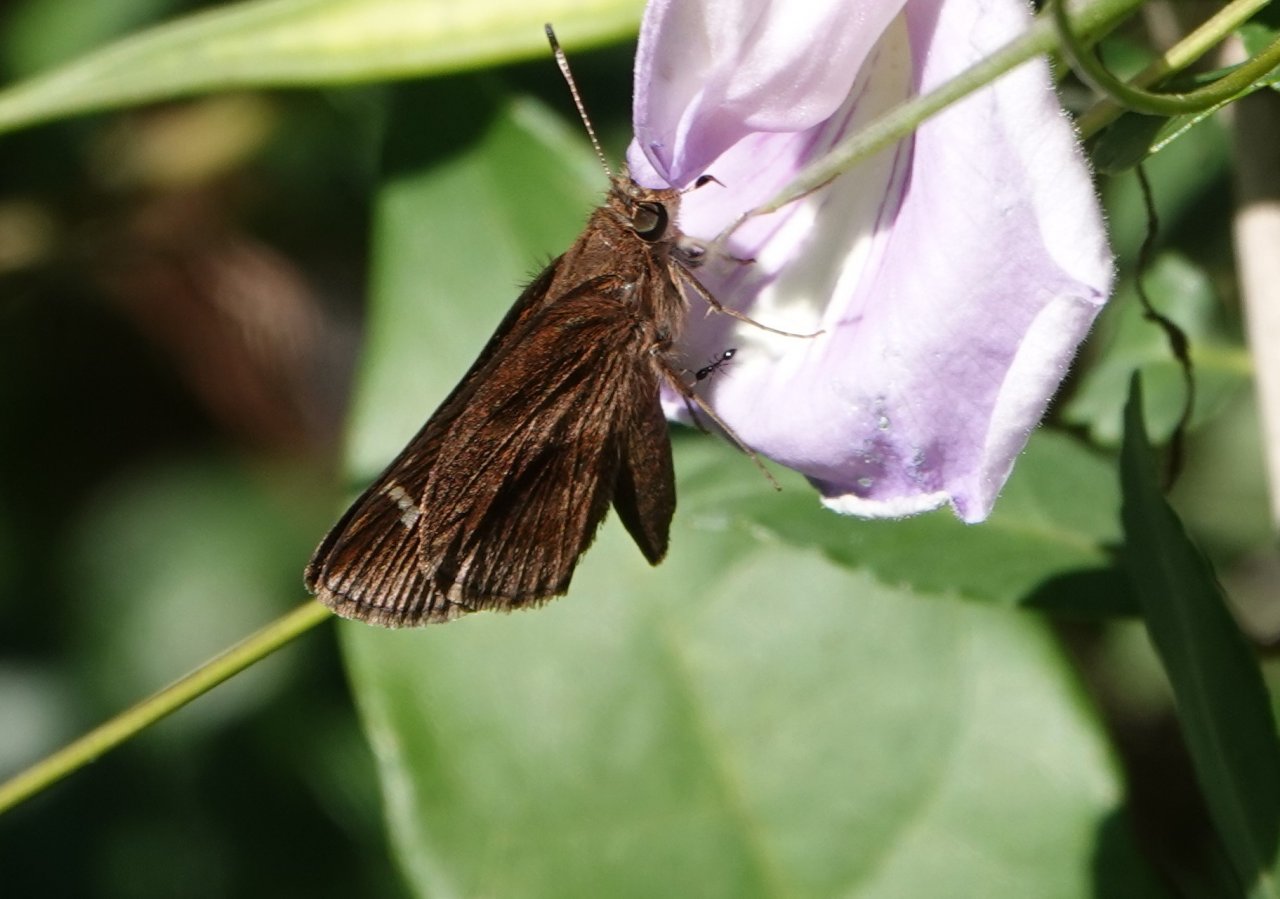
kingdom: Animalia
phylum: Arthropoda
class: Insecta
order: Lepidoptera
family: Hesperiidae
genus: Lerema
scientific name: Lerema accius
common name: Clouded Skipper
